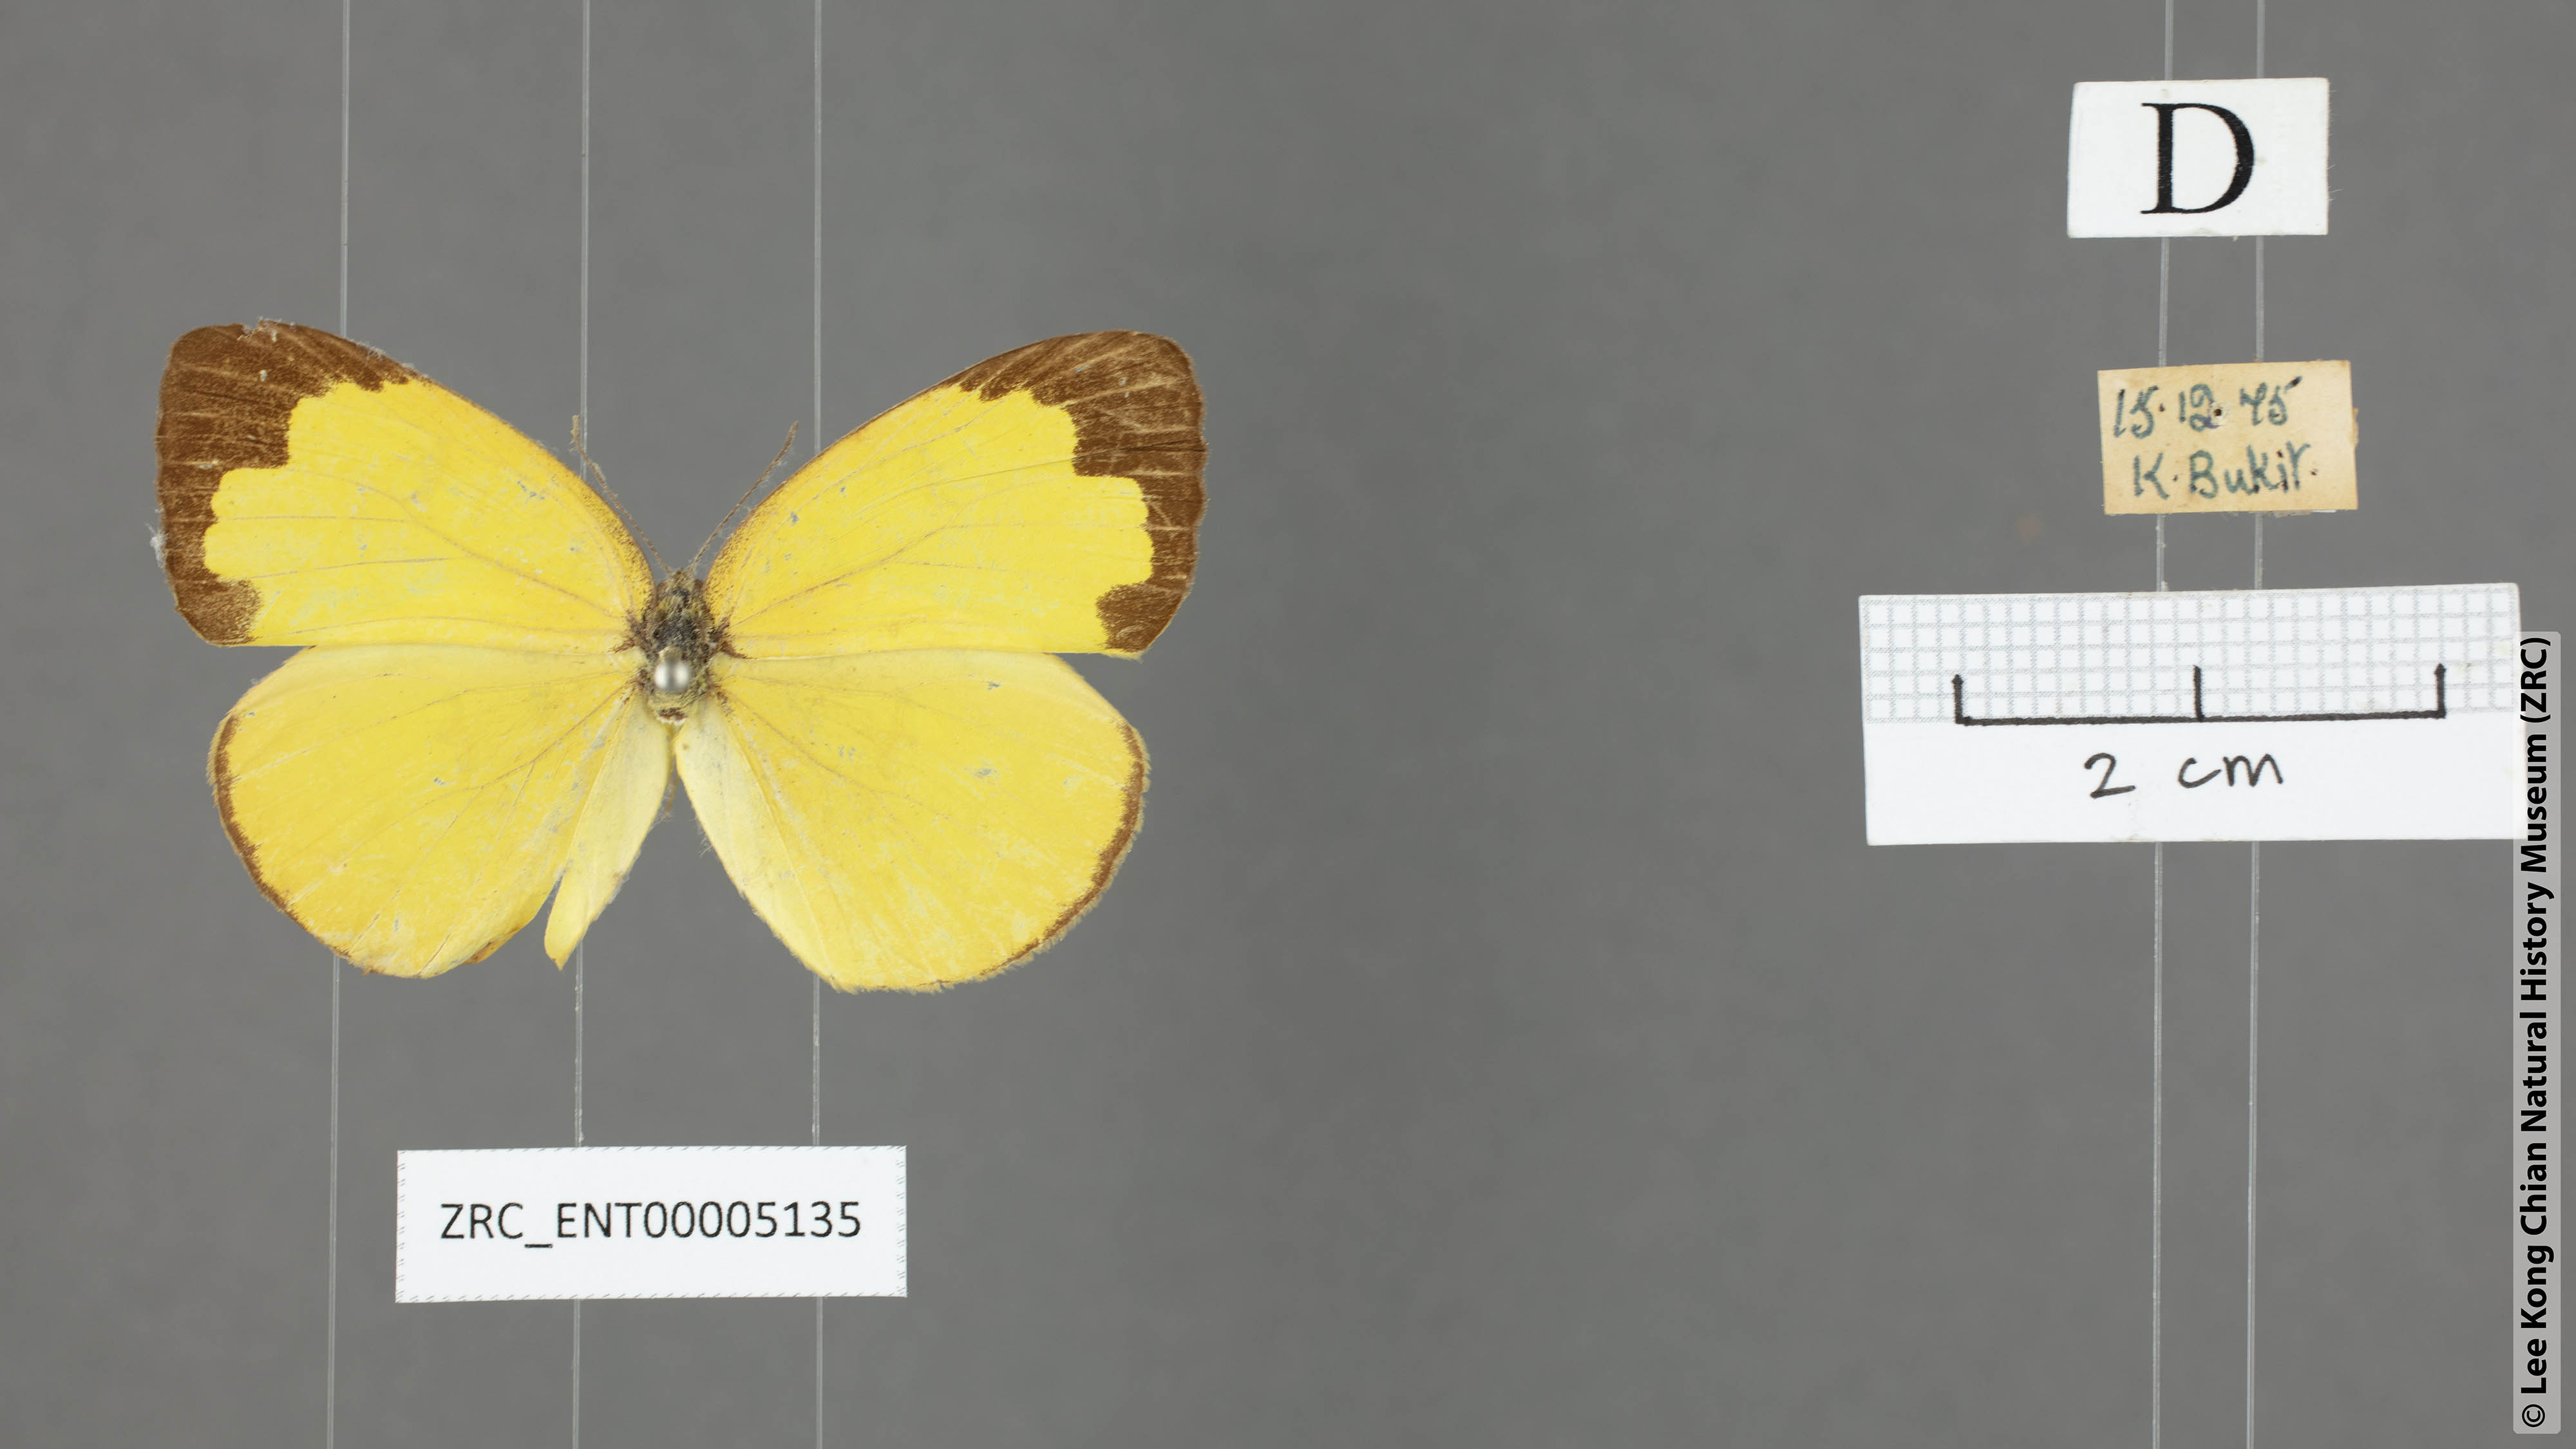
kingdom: Animalia
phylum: Arthropoda
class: Insecta
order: Lepidoptera
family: Pieridae
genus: Eurema
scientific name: Eurema simulatrix
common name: Hill grass yellow
